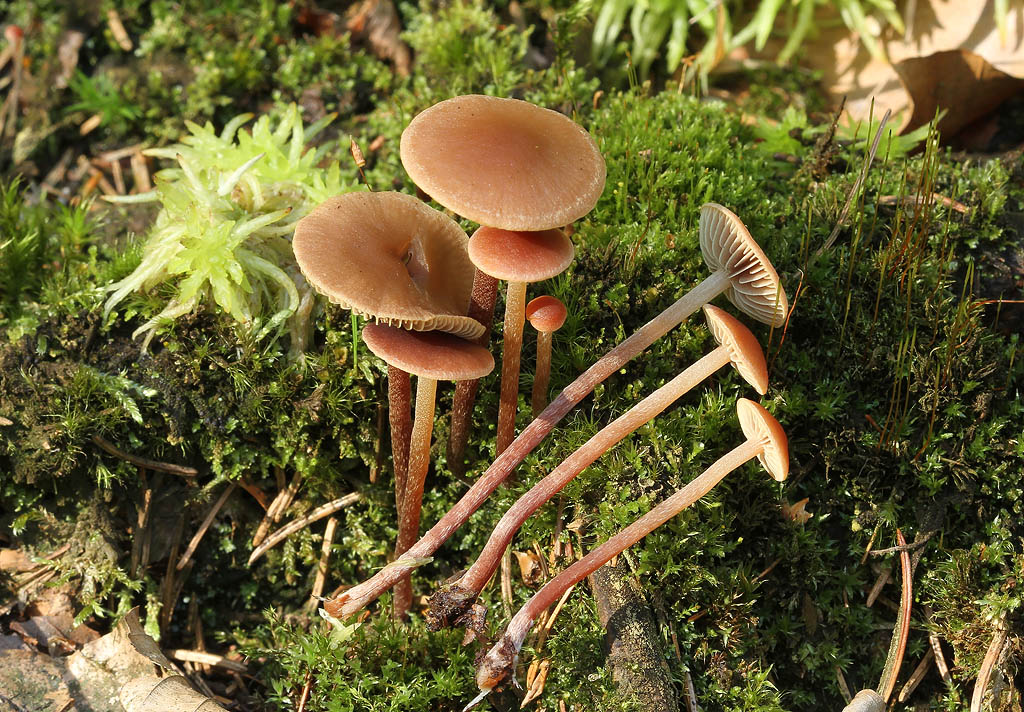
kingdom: Fungi
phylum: Basidiomycota
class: Agaricomycetes
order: Agaricales
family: Strophariaceae
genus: Bogbodia
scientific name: Bogbodia uda
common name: tørve-svovlhat
